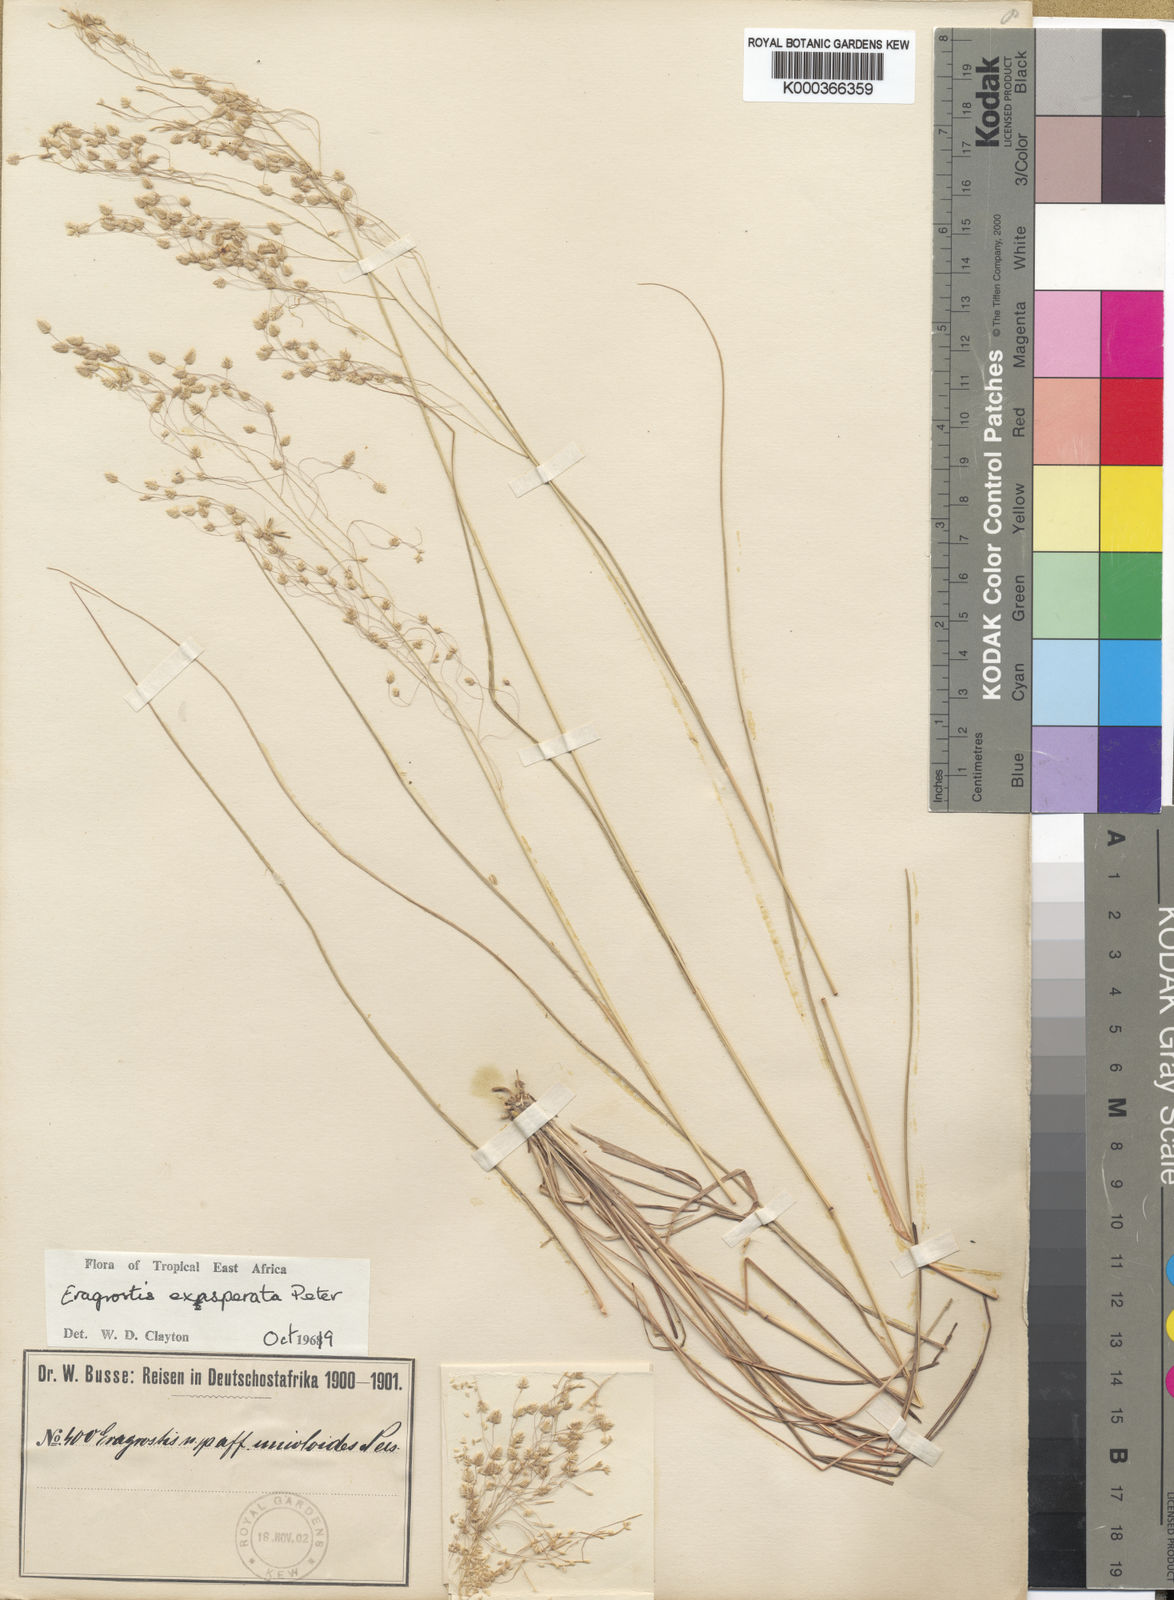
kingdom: Plantae
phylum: Tracheophyta
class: Liliopsida
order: Poales
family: Poaceae
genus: Eragrostis
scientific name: Eragrostis exasperata
